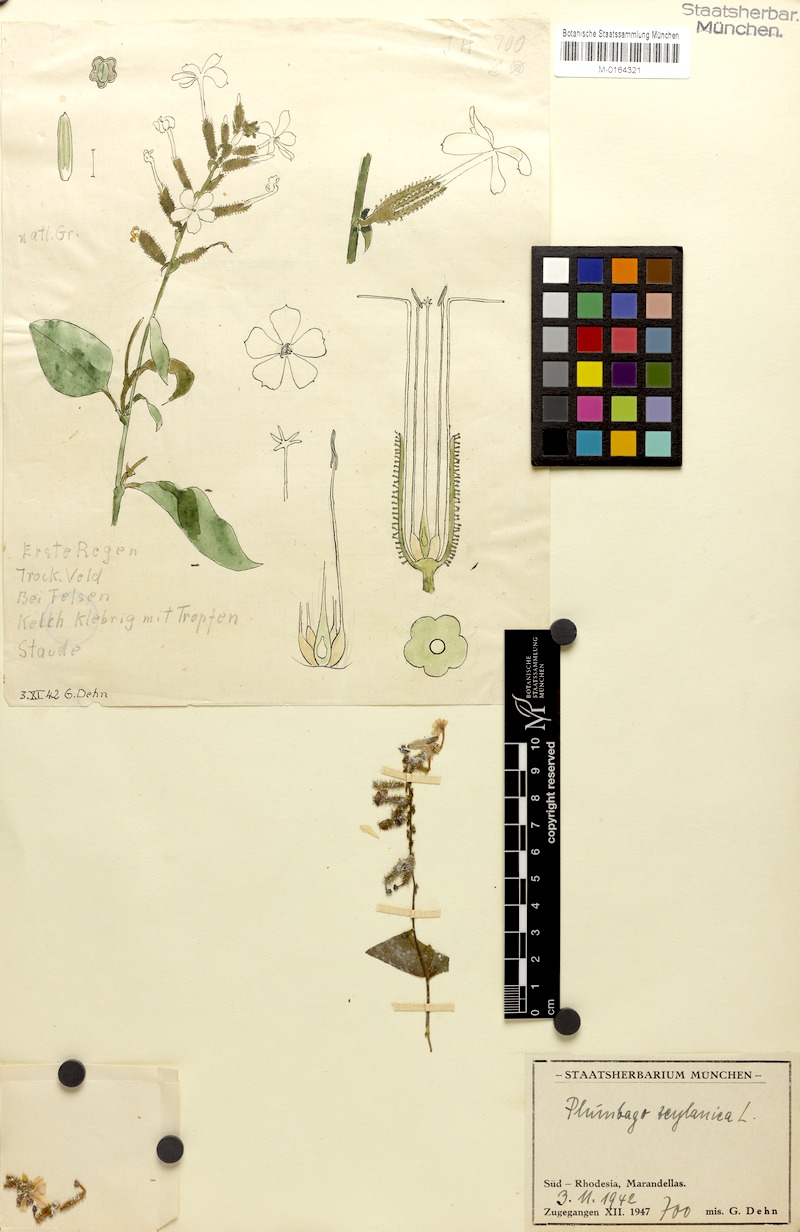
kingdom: Plantae
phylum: Tracheophyta
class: Magnoliopsida
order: Caryophyllales
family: Plumbaginaceae
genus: Plumbago
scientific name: Plumbago zeylanica
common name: Doctorbush
